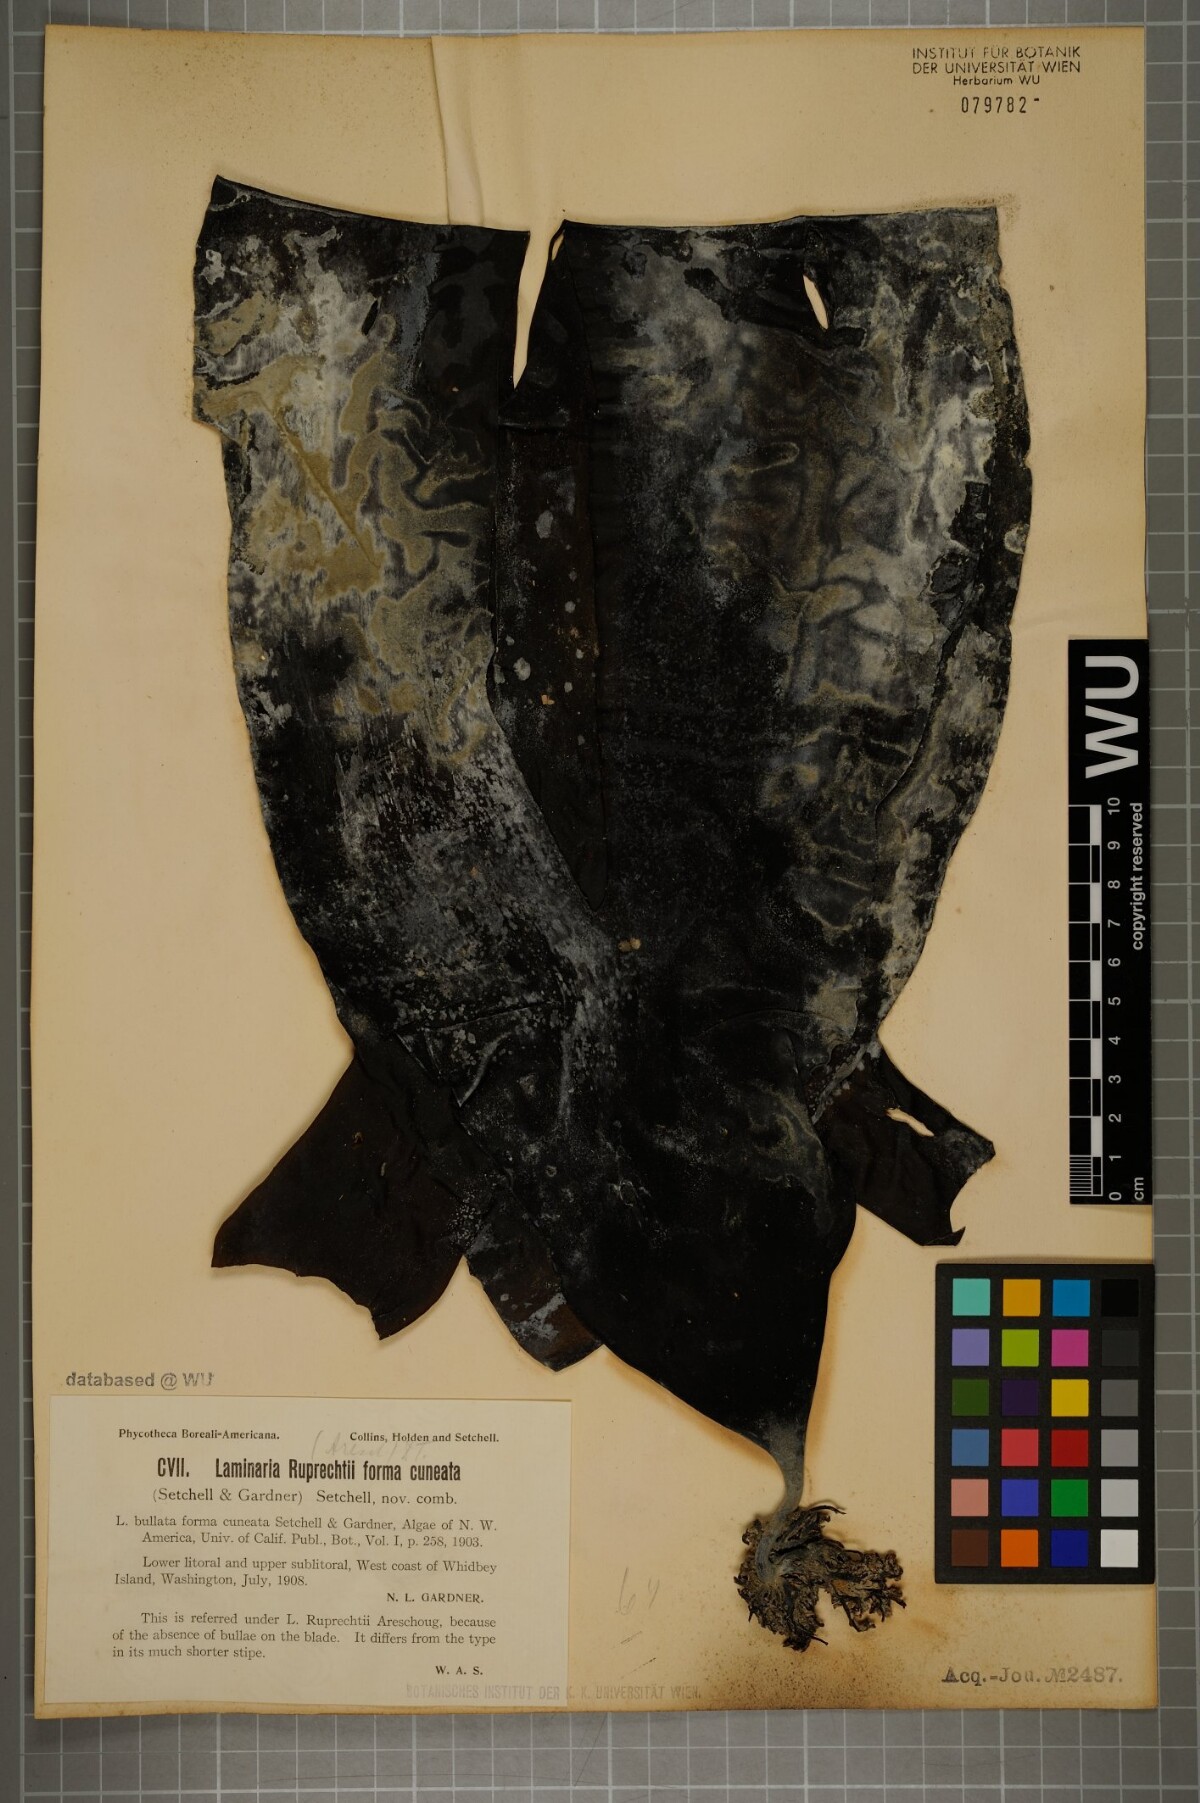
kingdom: Chromista
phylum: Ochrophyta
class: Phaeophyceae
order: Laminariales
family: Laminariaceae
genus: Laminaria
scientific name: Laminaria
